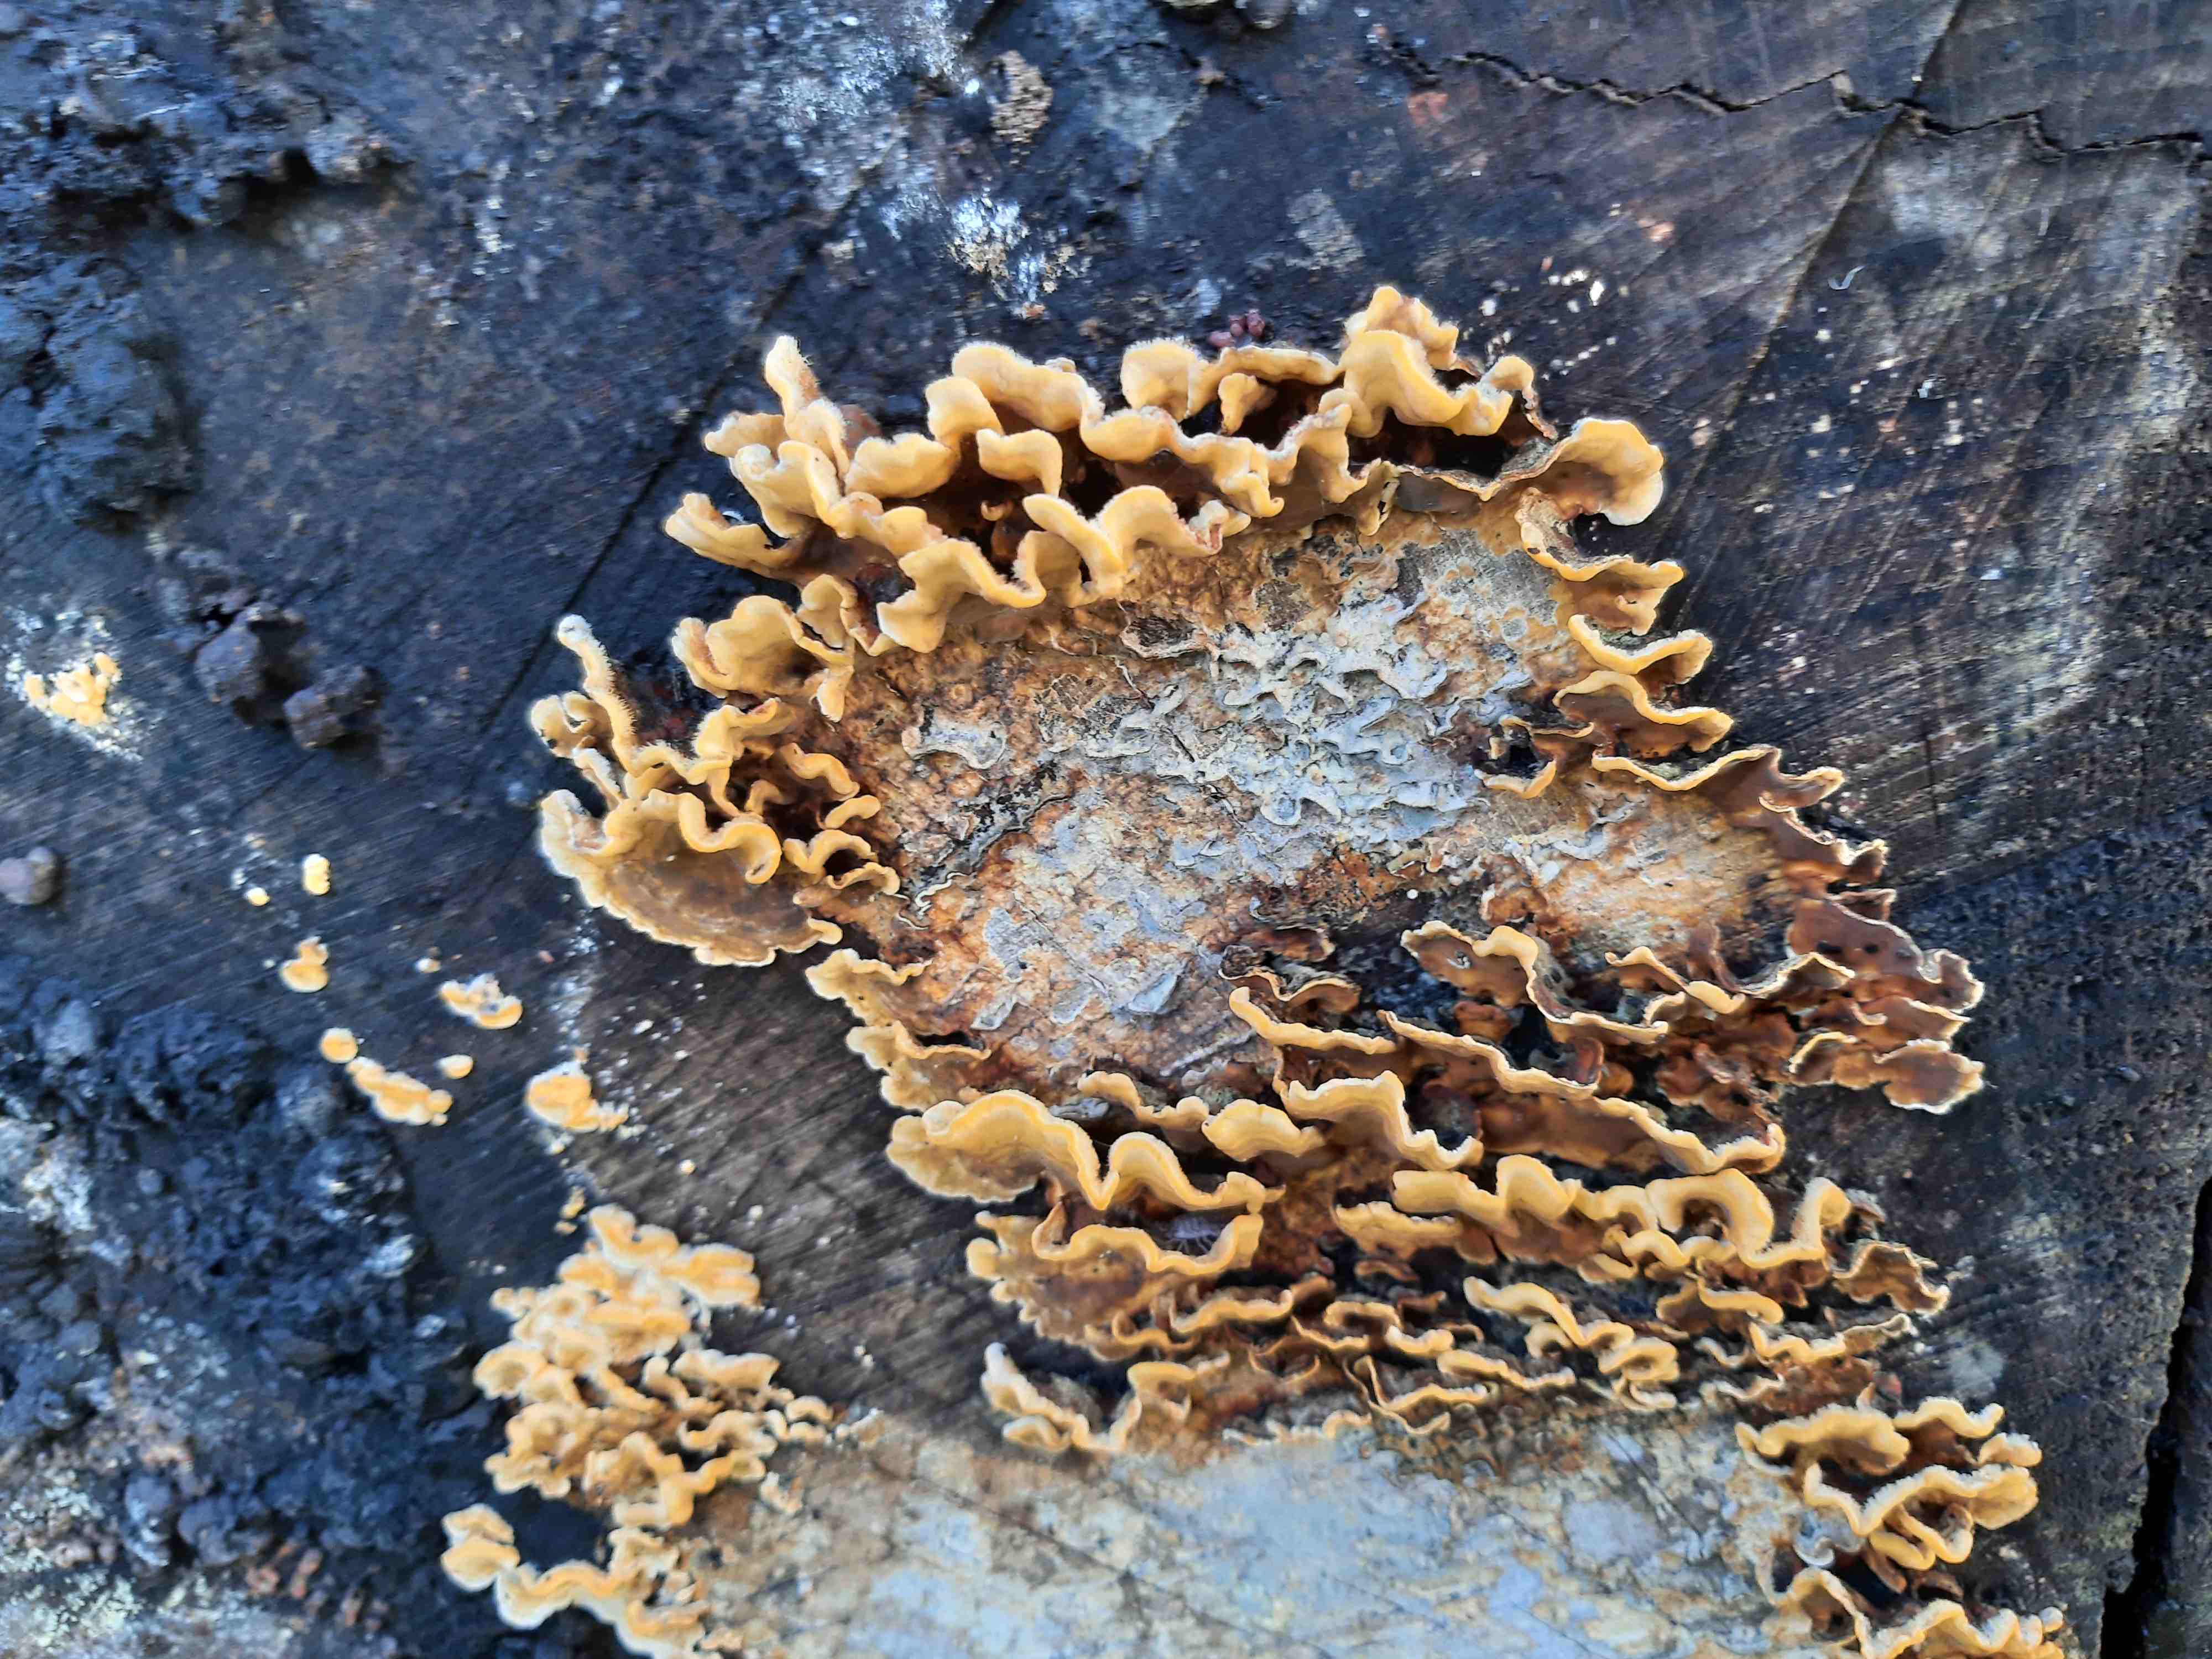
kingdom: Fungi
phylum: Basidiomycota
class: Agaricomycetes
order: Russulales
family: Stereaceae
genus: Stereum
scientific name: Stereum hirsutum
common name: håret lædersvamp
